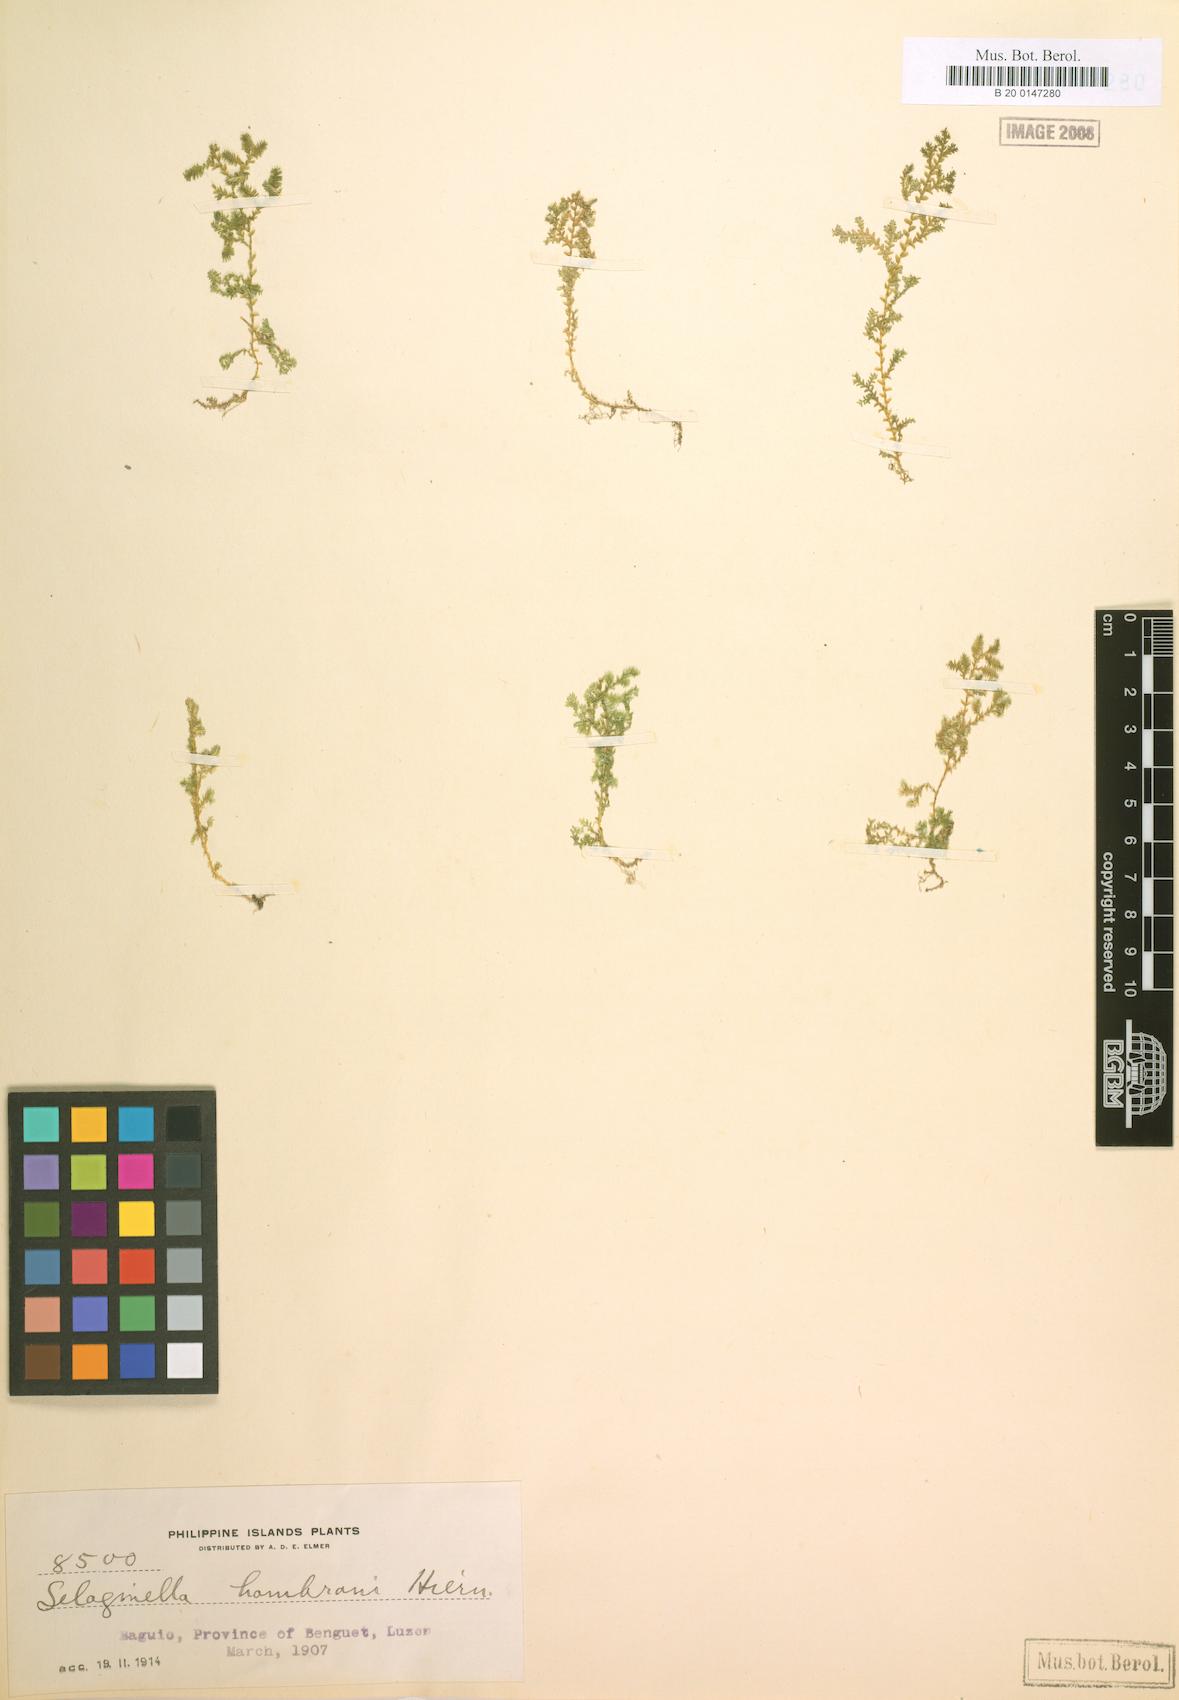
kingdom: Plantae
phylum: Tracheophyta
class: Lycopodiopsida
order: Selaginellales
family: Selaginellaceae
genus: Selaginella
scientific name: Selaginella philippsiana
